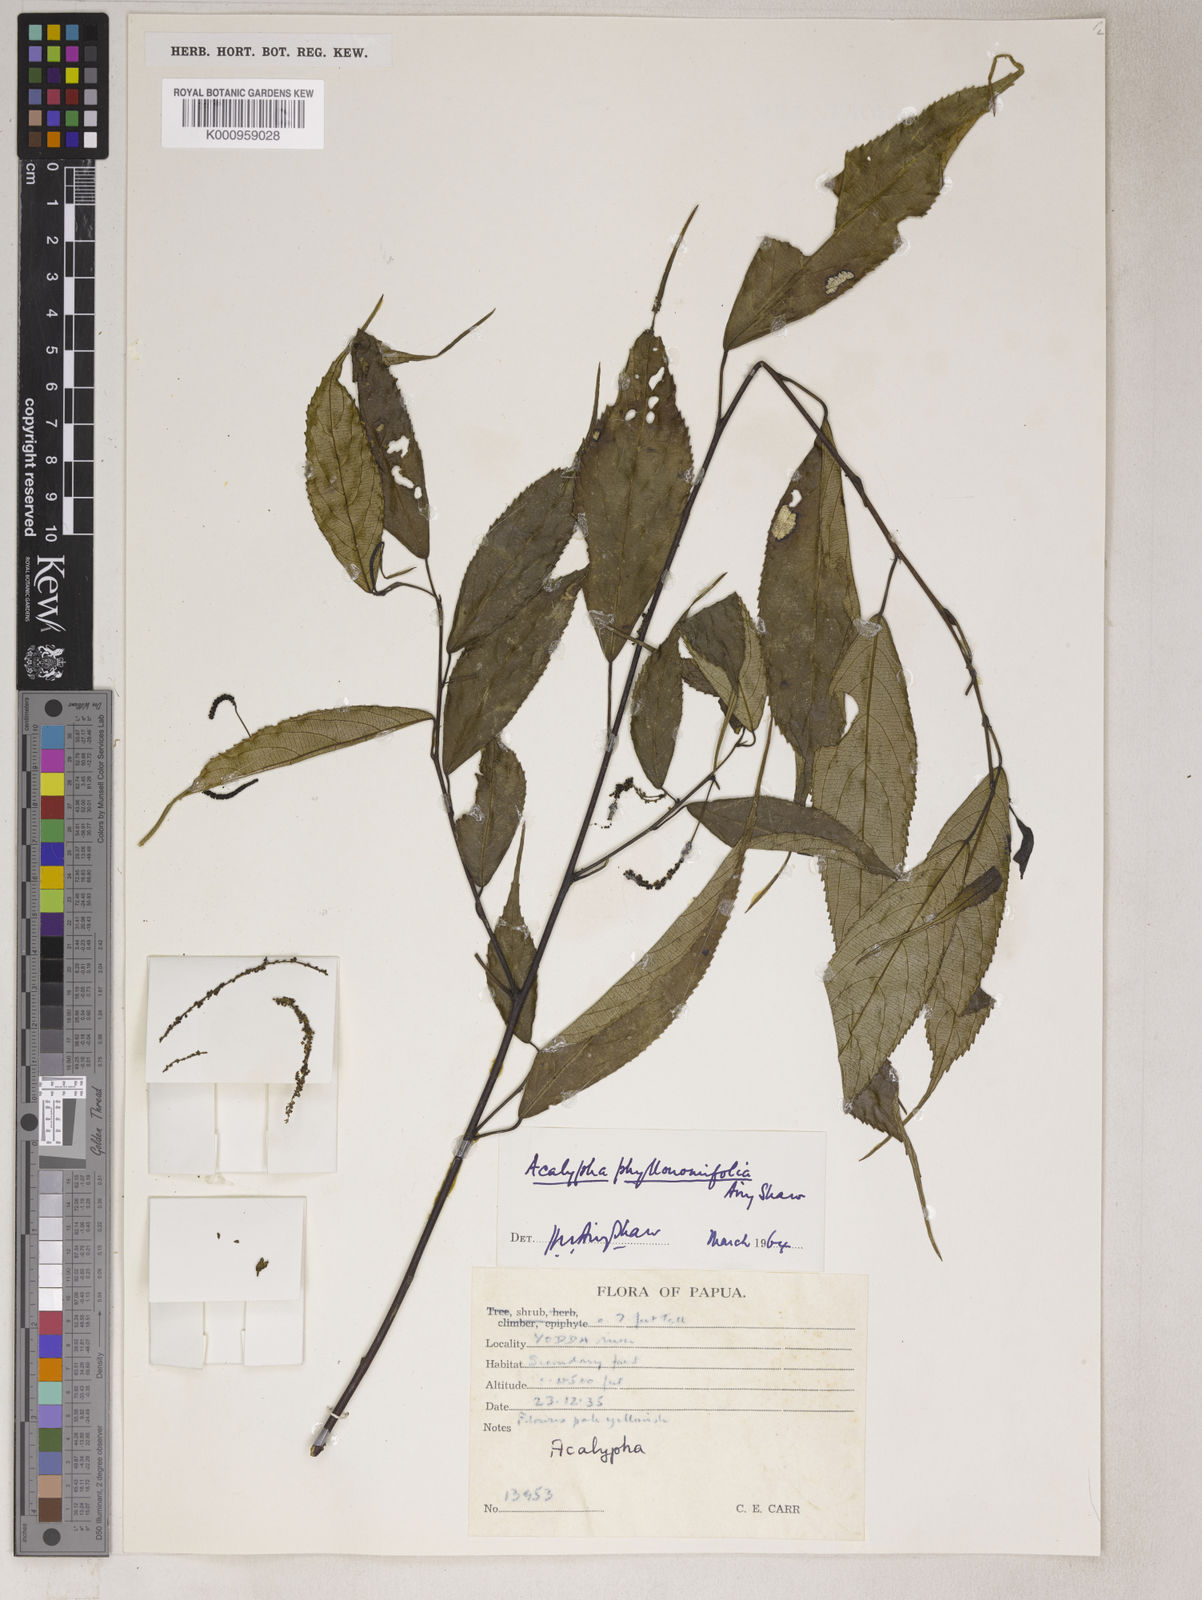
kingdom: Plantae
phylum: Tracheophyta
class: Magnoliopsida
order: Malpighiales
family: Euphorbiaceae
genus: Acalypha
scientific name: Acalypha phyllonomifolia
